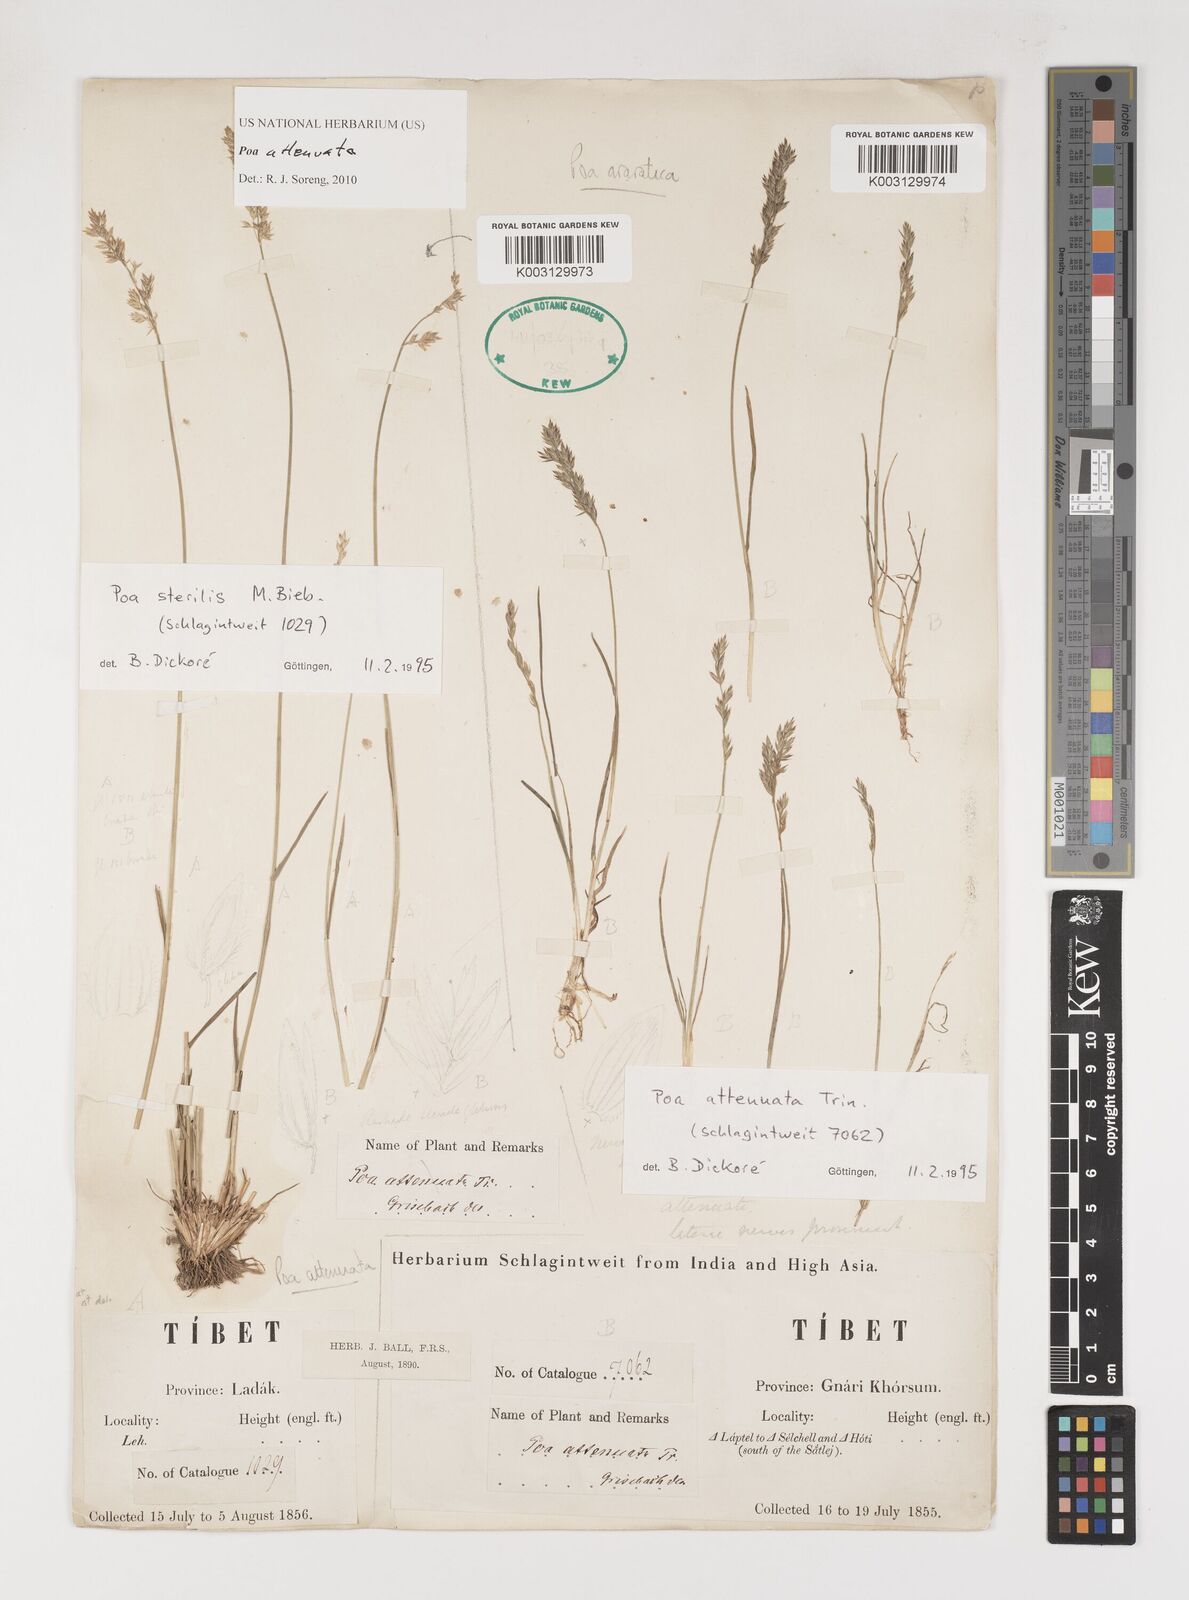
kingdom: Plantae
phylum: Tracheophyta
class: Liliopsida
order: Poales
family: Poaceae
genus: Poa
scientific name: Poa attenuata
